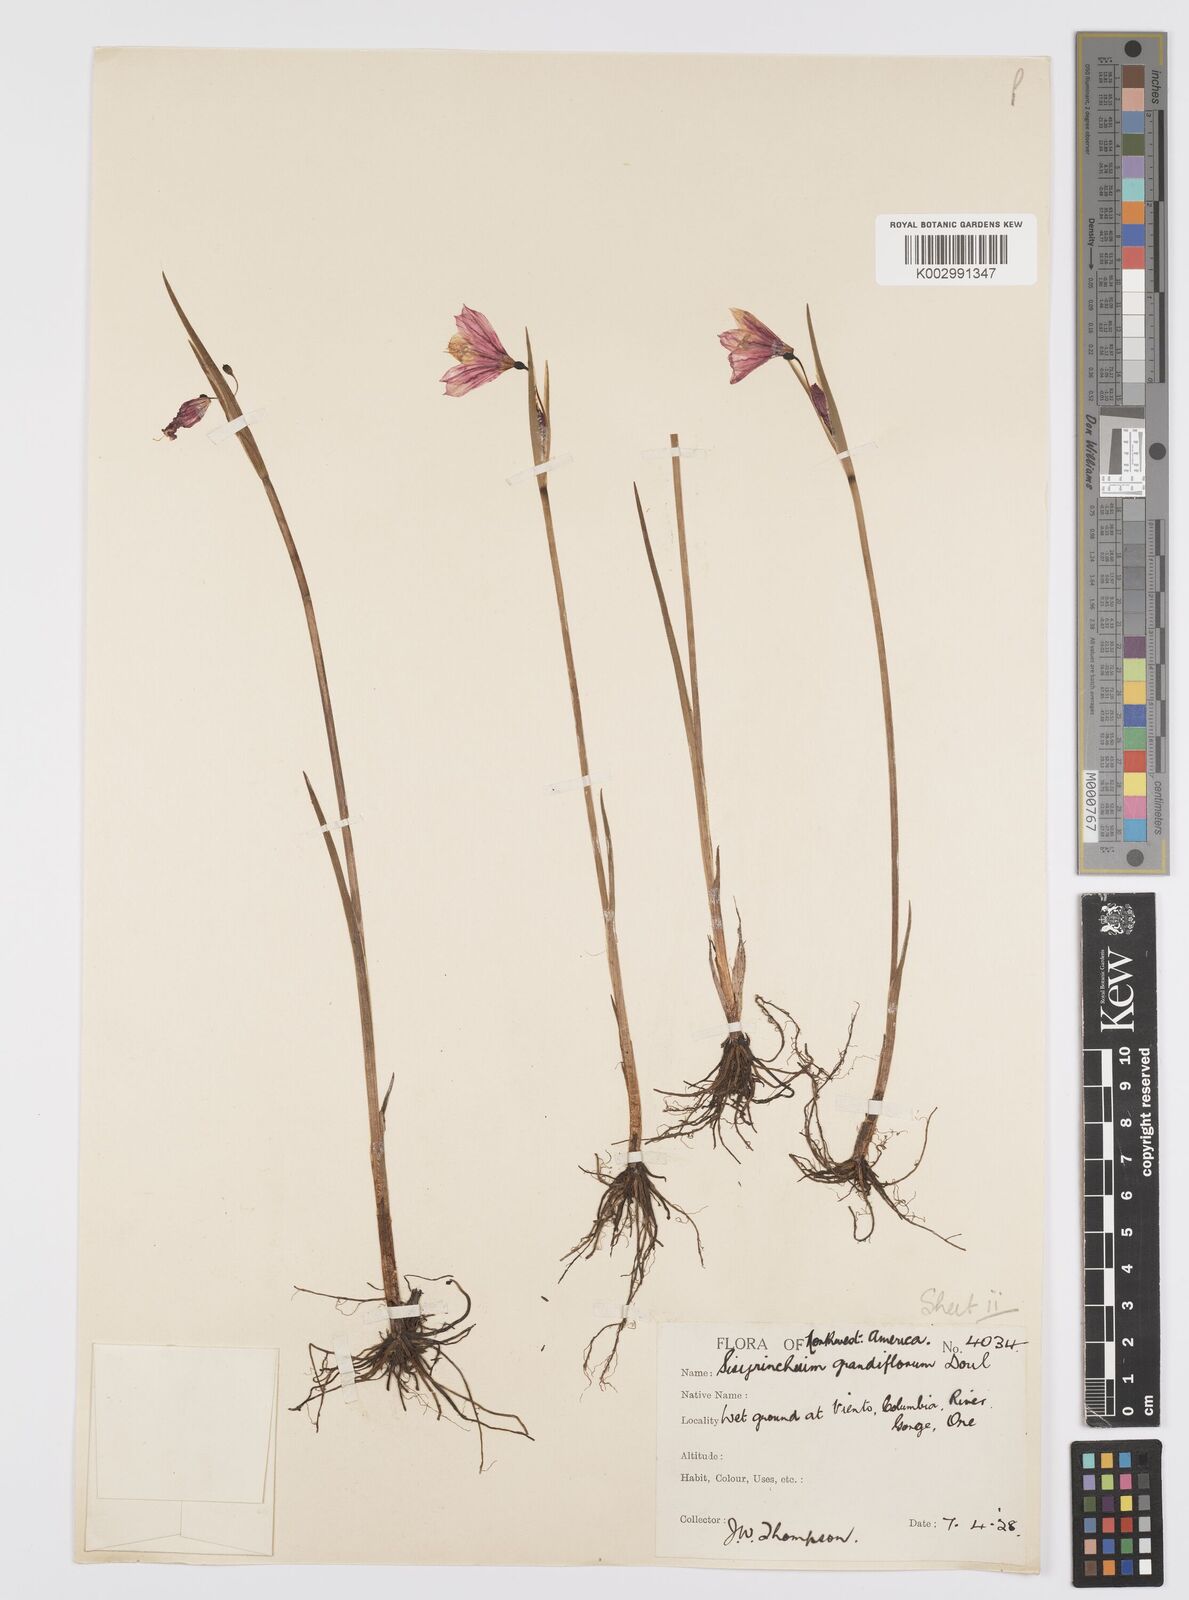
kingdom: Plantae
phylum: Tracheophyta
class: Liliopsida
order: Asparagales
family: Iridaceae
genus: Olsynium
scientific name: Olsynium douglasii
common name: Douglas' grasswidow
